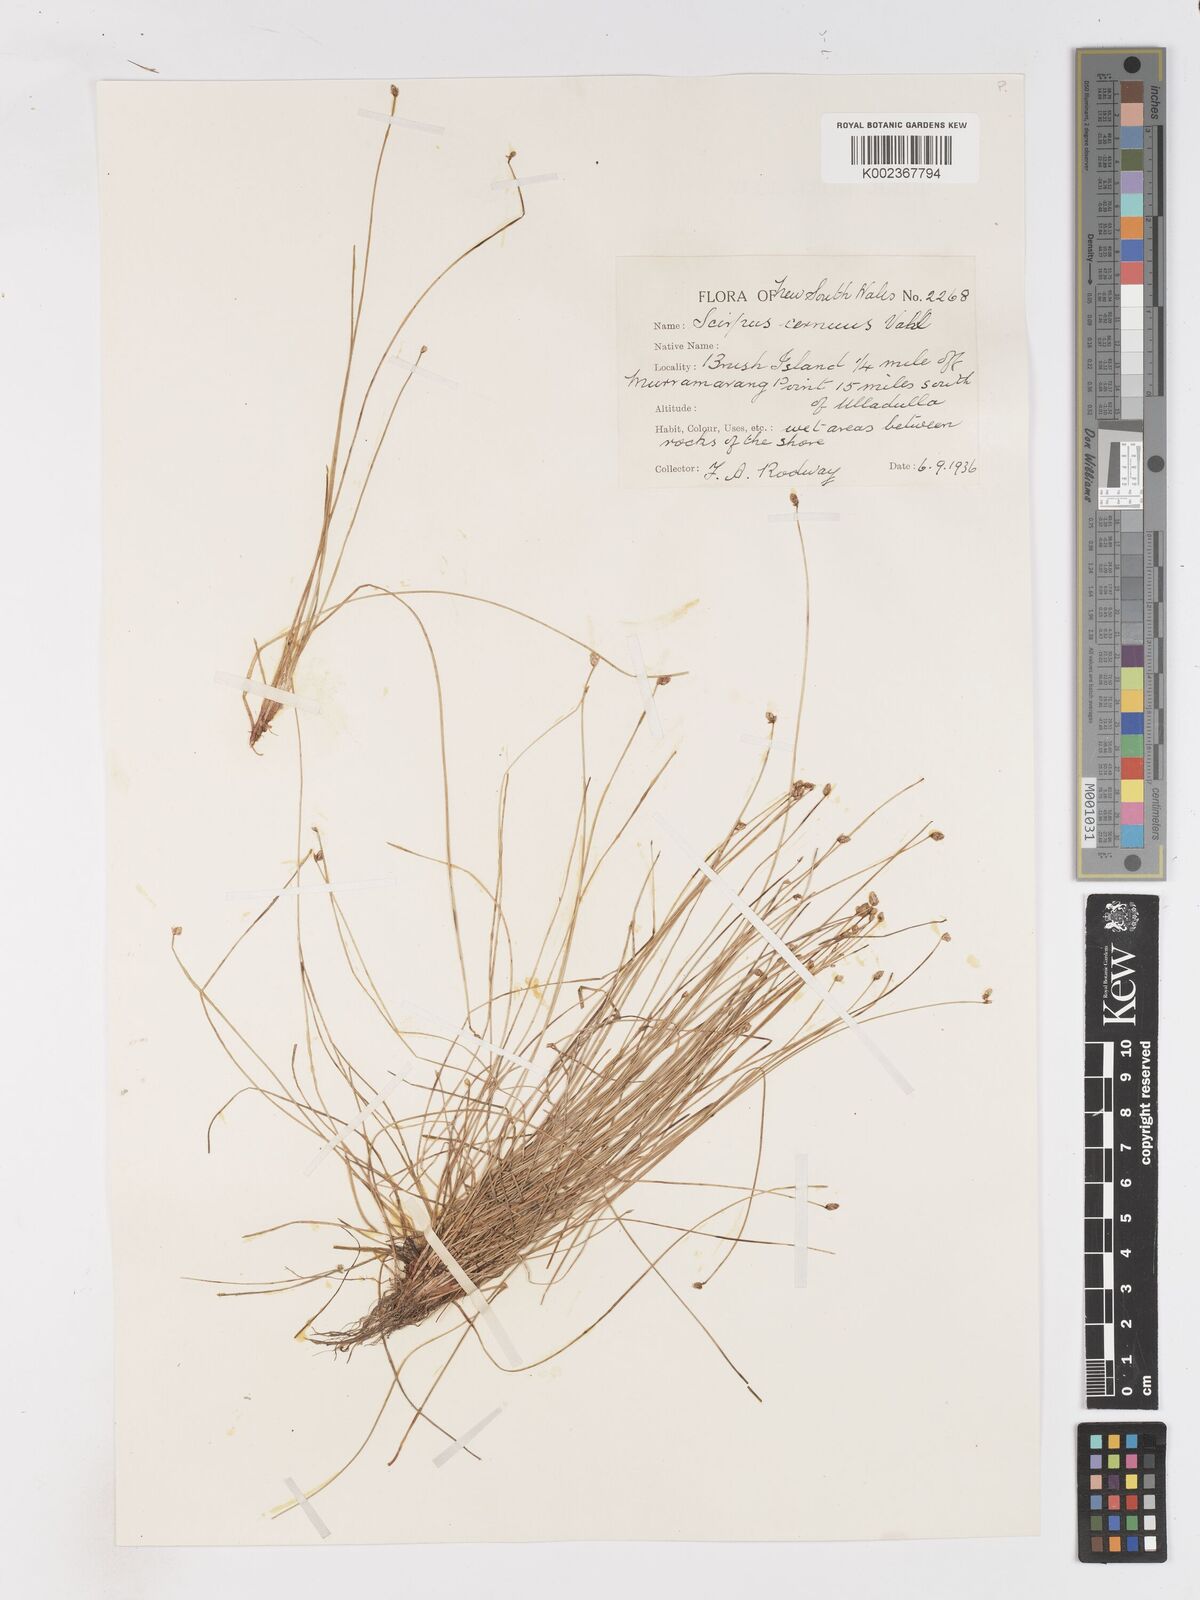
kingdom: Plantae
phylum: Tracheophyta
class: Liliopsida
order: Poales
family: Cyperaceae
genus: Isolepis
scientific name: Isolepis cernua
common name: Slender club-rush
